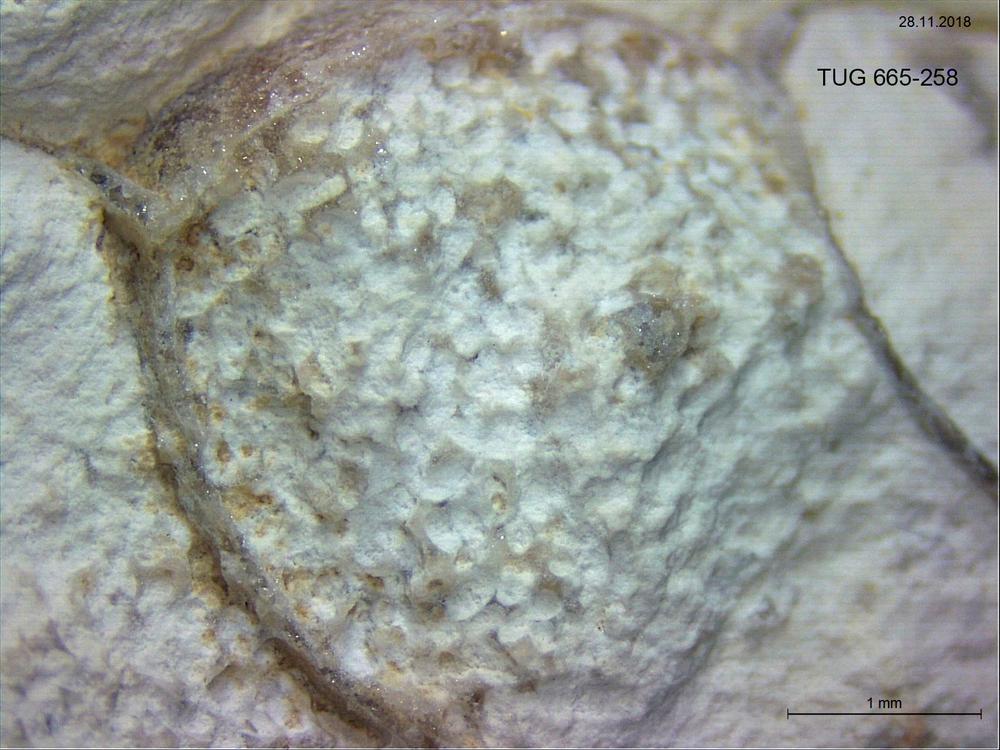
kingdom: Animalia
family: Coprulidae
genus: Coprulus
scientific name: Coprulus
